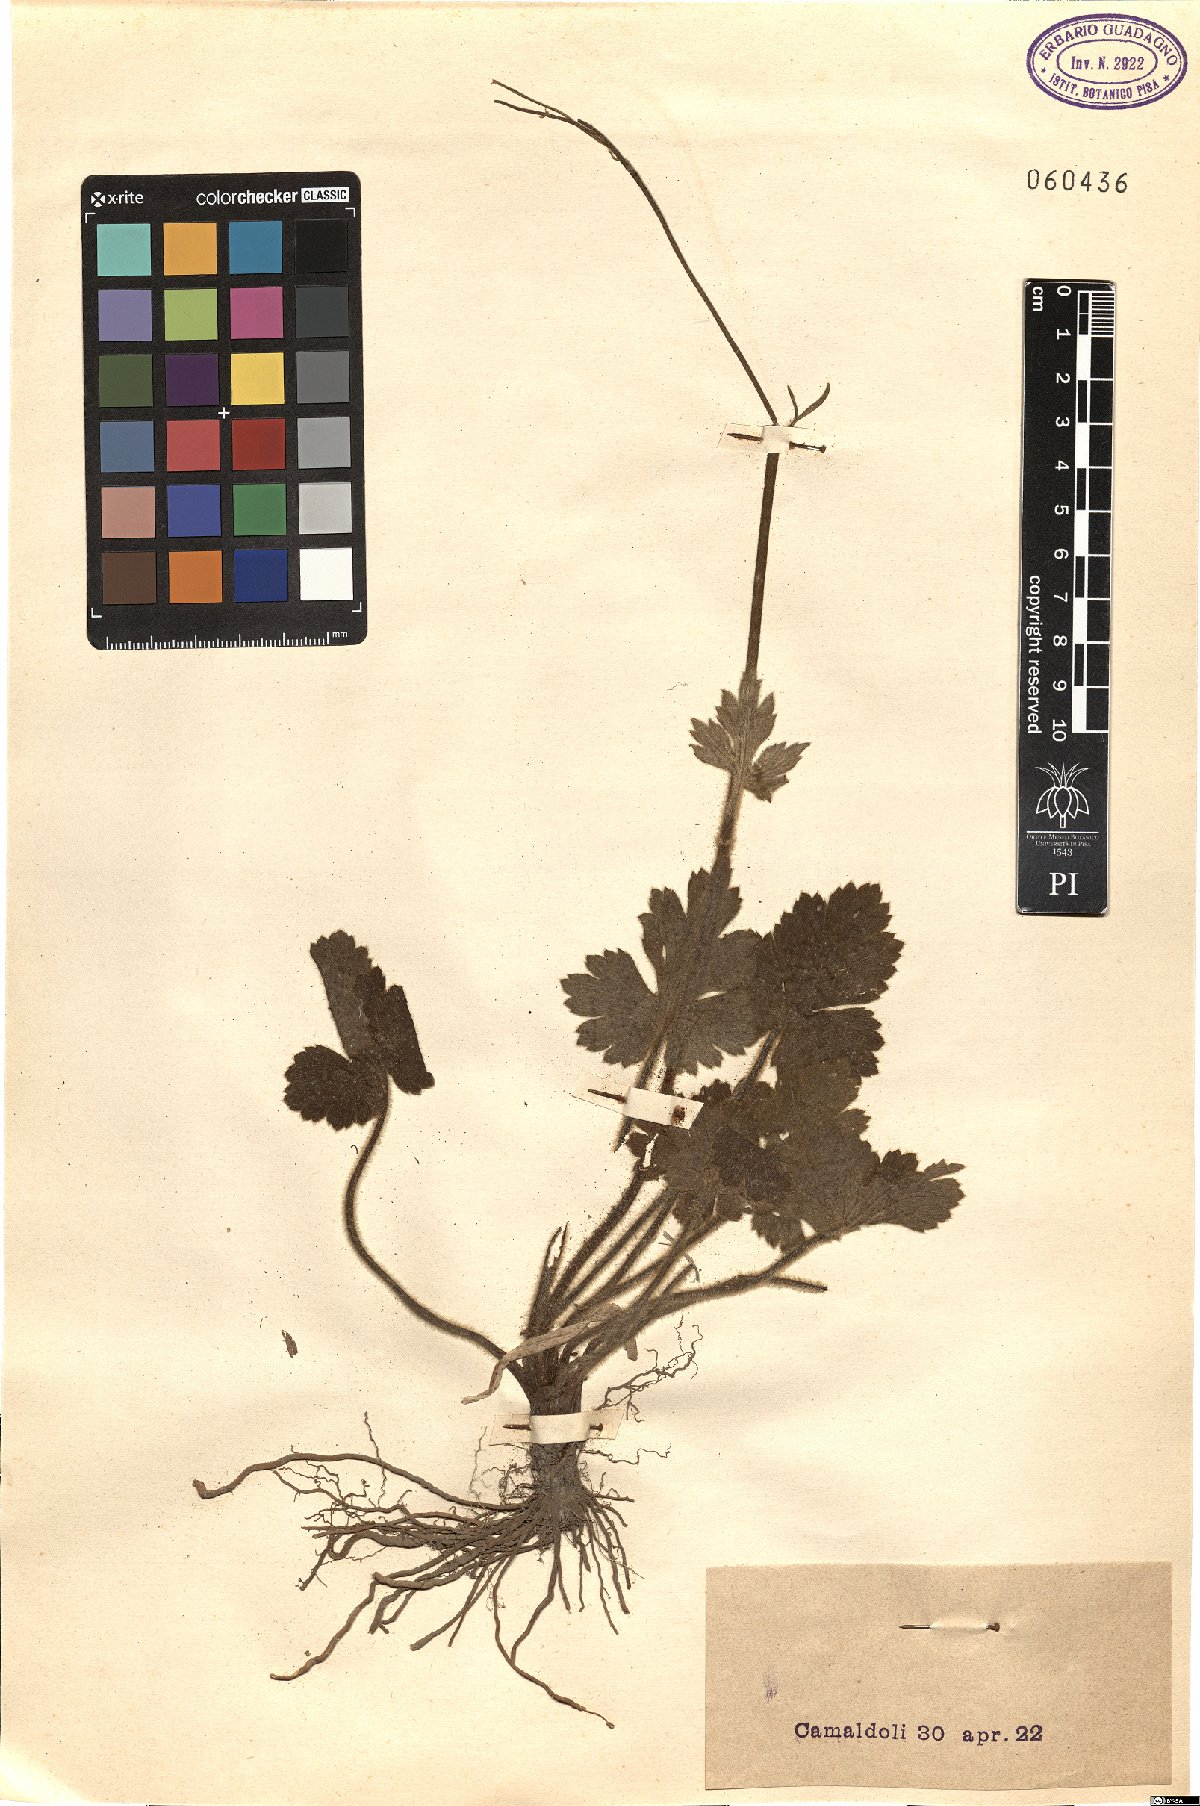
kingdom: Plantae
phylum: Tracheophyta
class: Magnoliopsida
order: Ranunculales
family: Ranunculaceae
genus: Ranunculus
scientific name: Ranunculus
